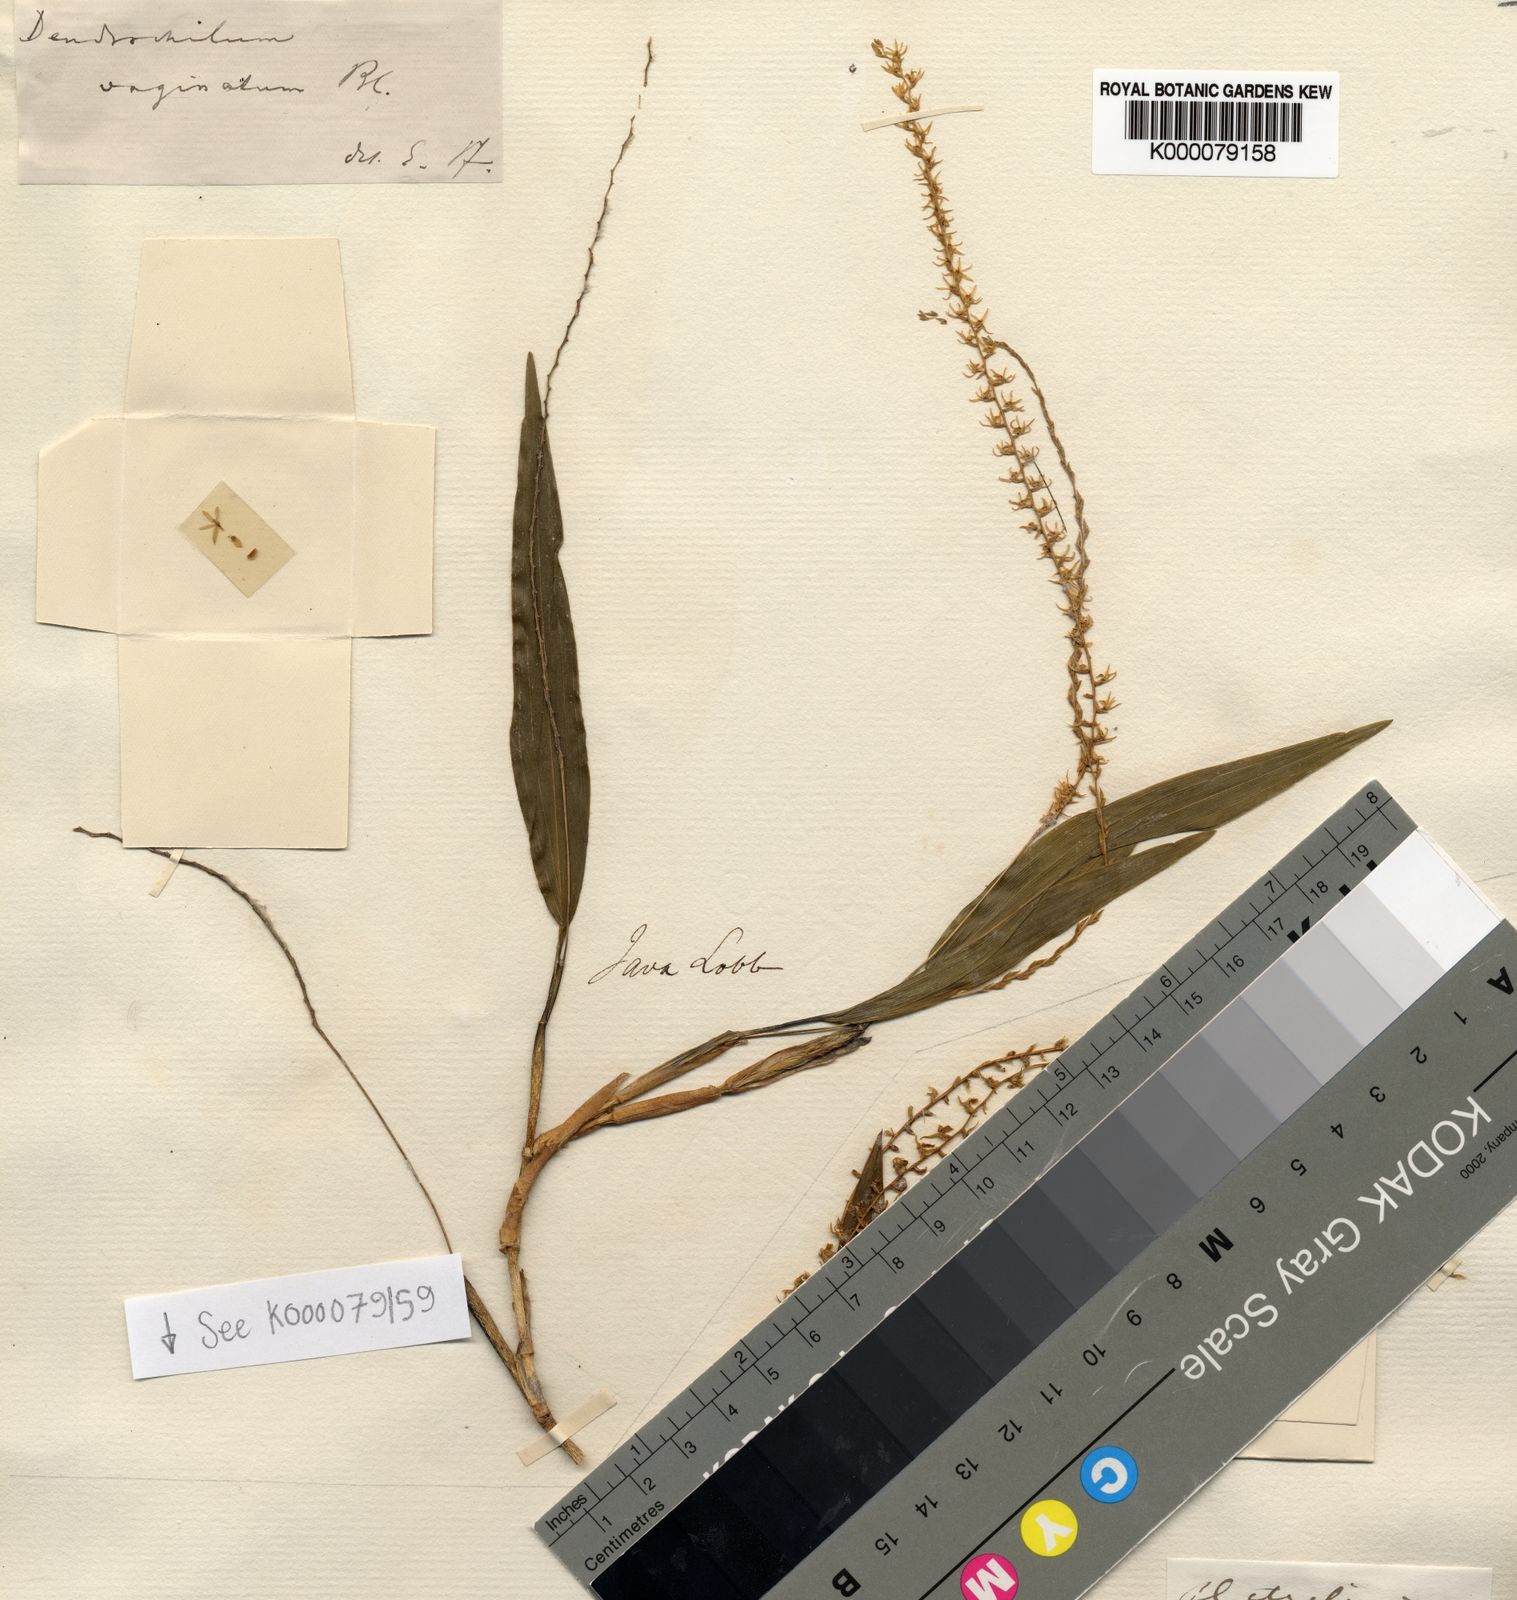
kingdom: Plantae
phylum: Tracheophyta
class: Liliopsida
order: Asparagales
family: Orchidaceae
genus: Coelogyne
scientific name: Coelogyne involucrata
